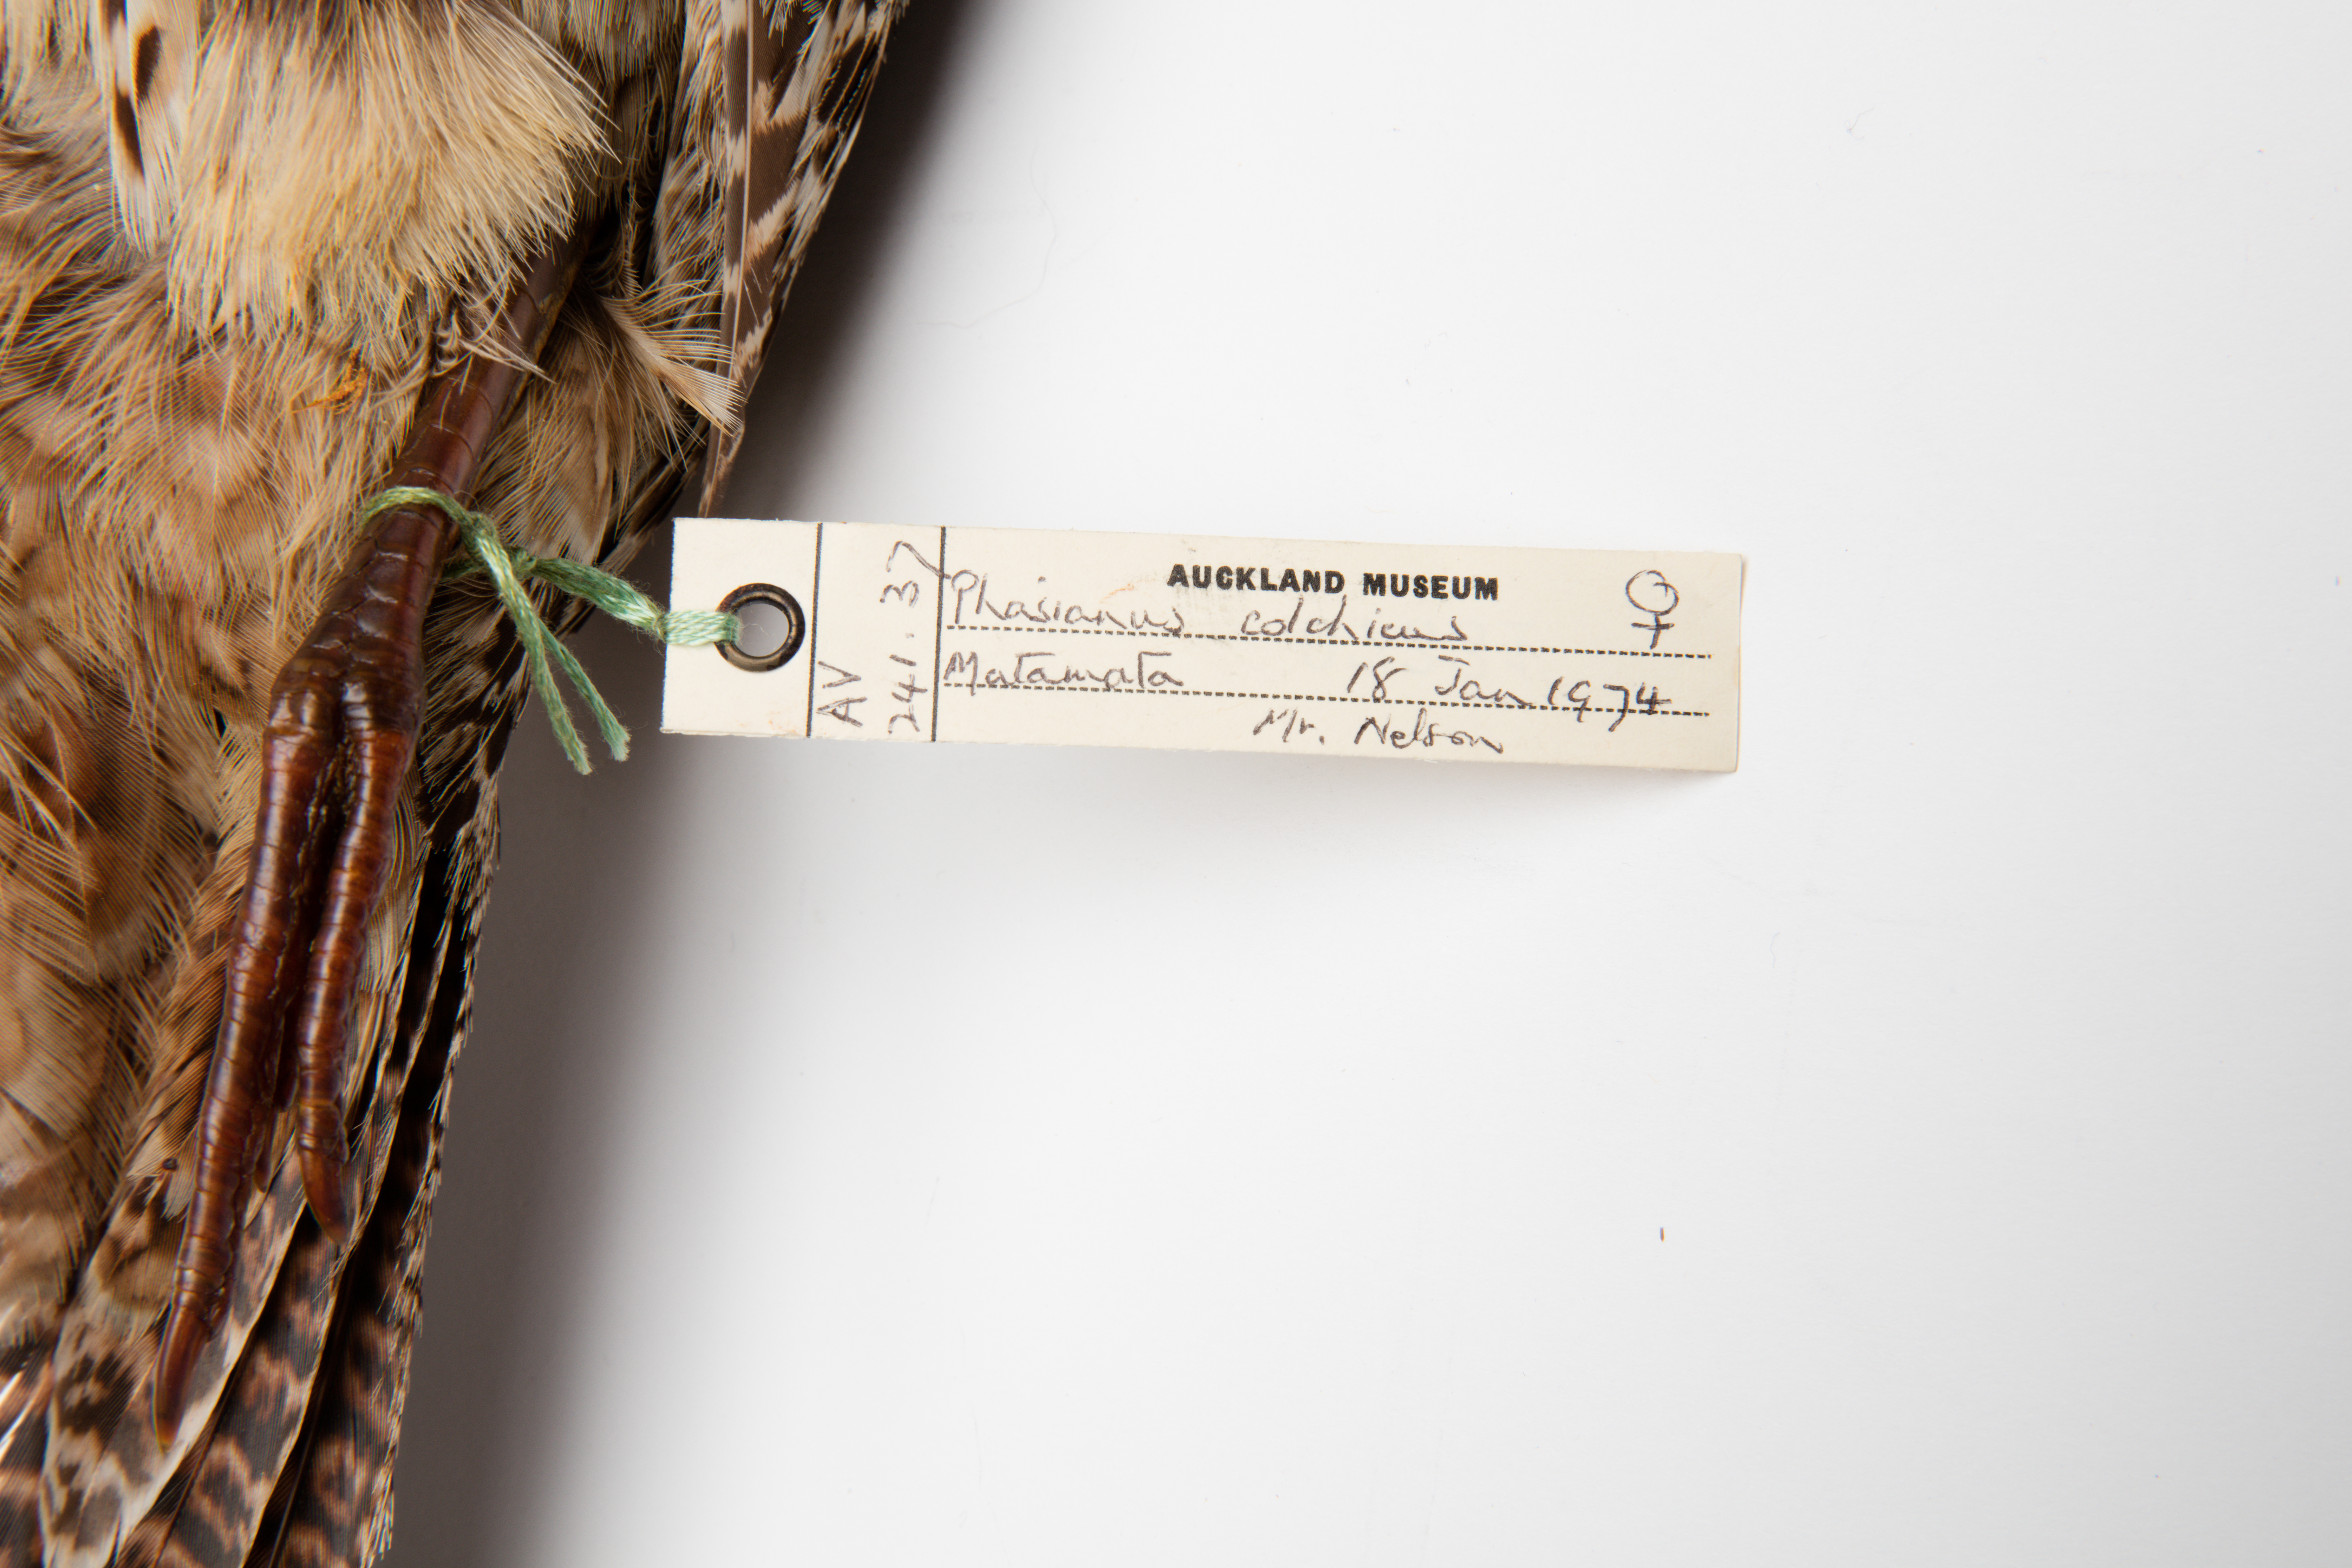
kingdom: Animalia
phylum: Chordata
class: Aves
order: Galliformes
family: Phasianidae
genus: Phasianus
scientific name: Phasianus colchicus
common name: Common pheasant
